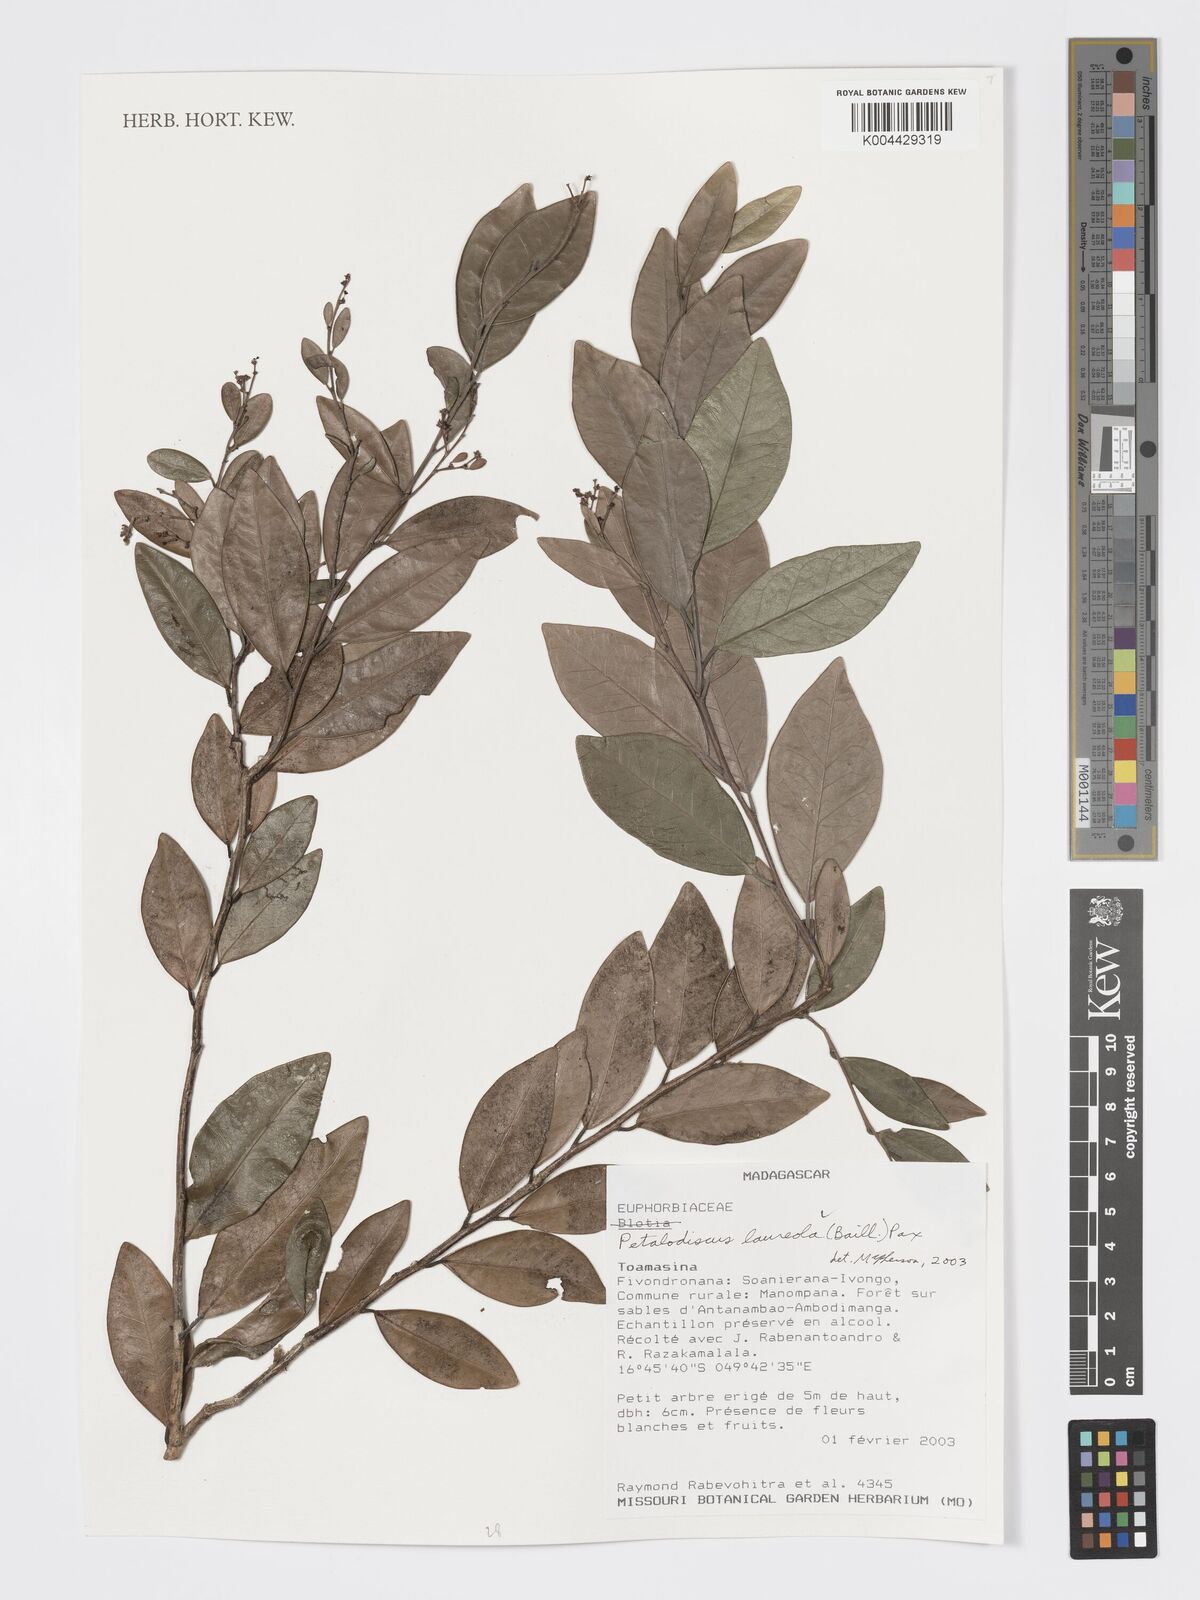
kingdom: Plantae
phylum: Tracheophyta
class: Magnoliopsida
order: Malpighiales
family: Phyllanthaceae
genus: Wielandia
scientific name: Wielandia laureola
